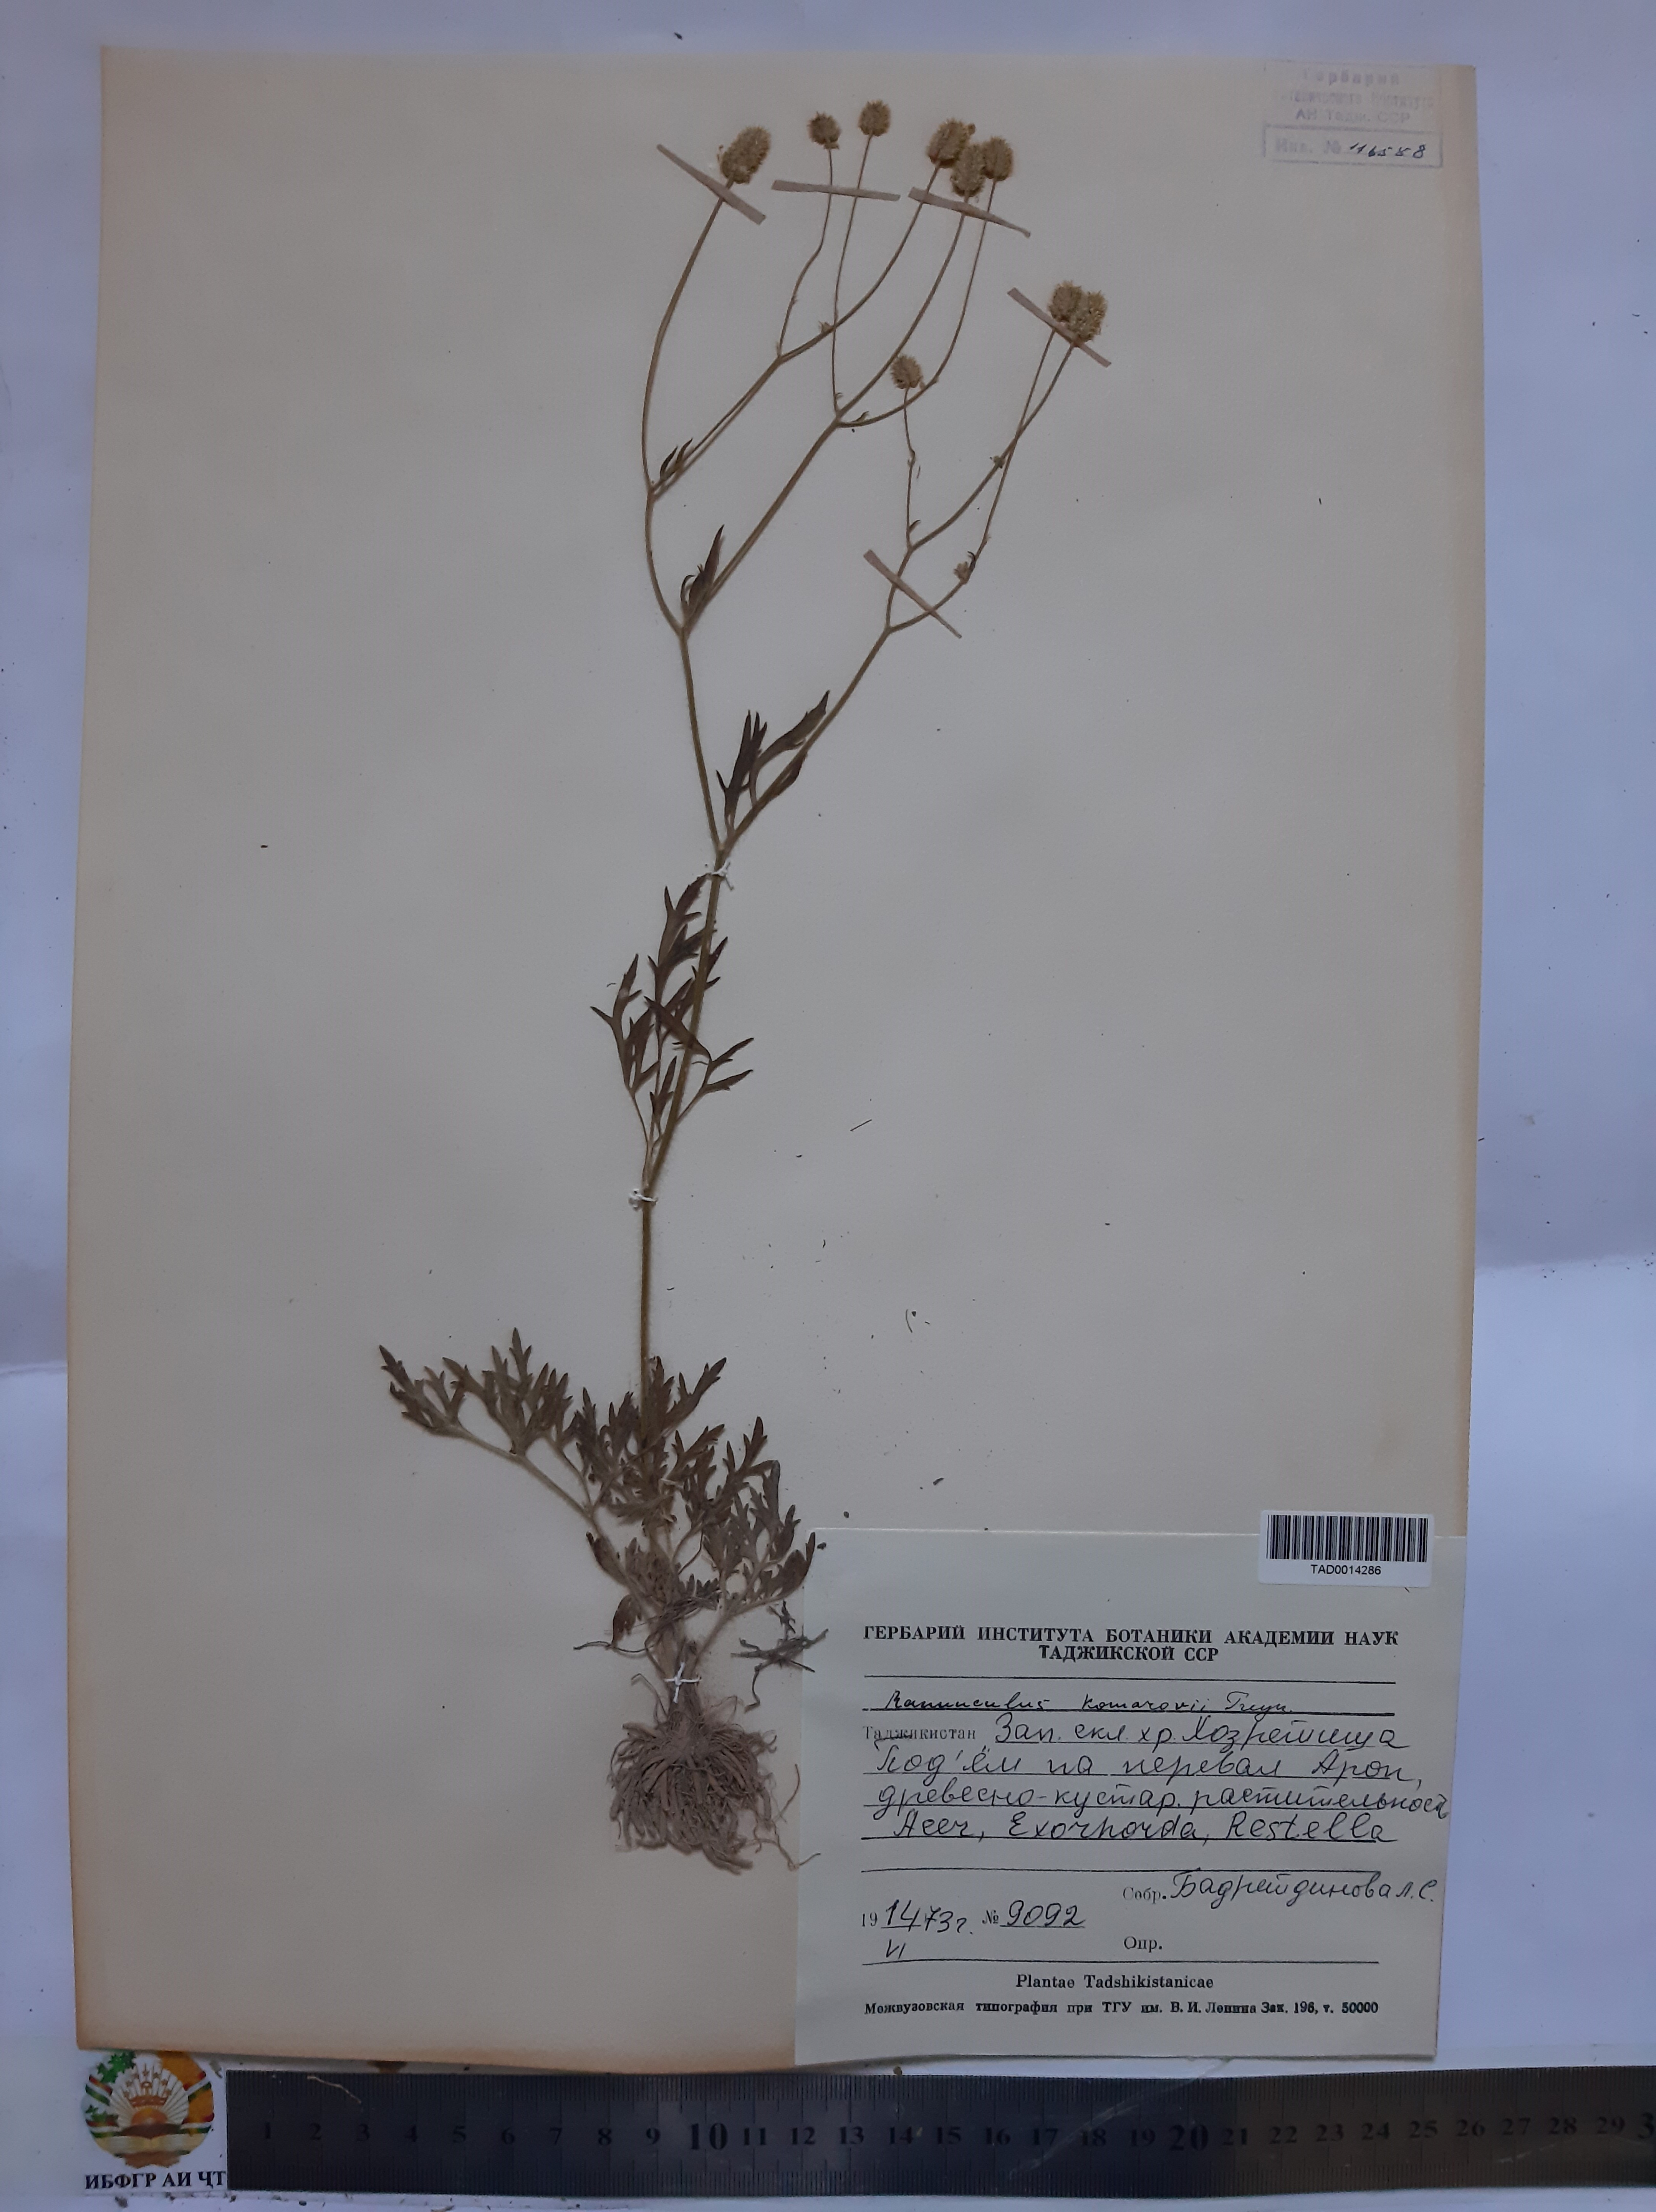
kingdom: Plantae
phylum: Tracheophyta
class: Magnoliopsida
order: Ranunculales
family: Ranunculaceae
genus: Ranunculus
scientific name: Ranunculus komarovii
